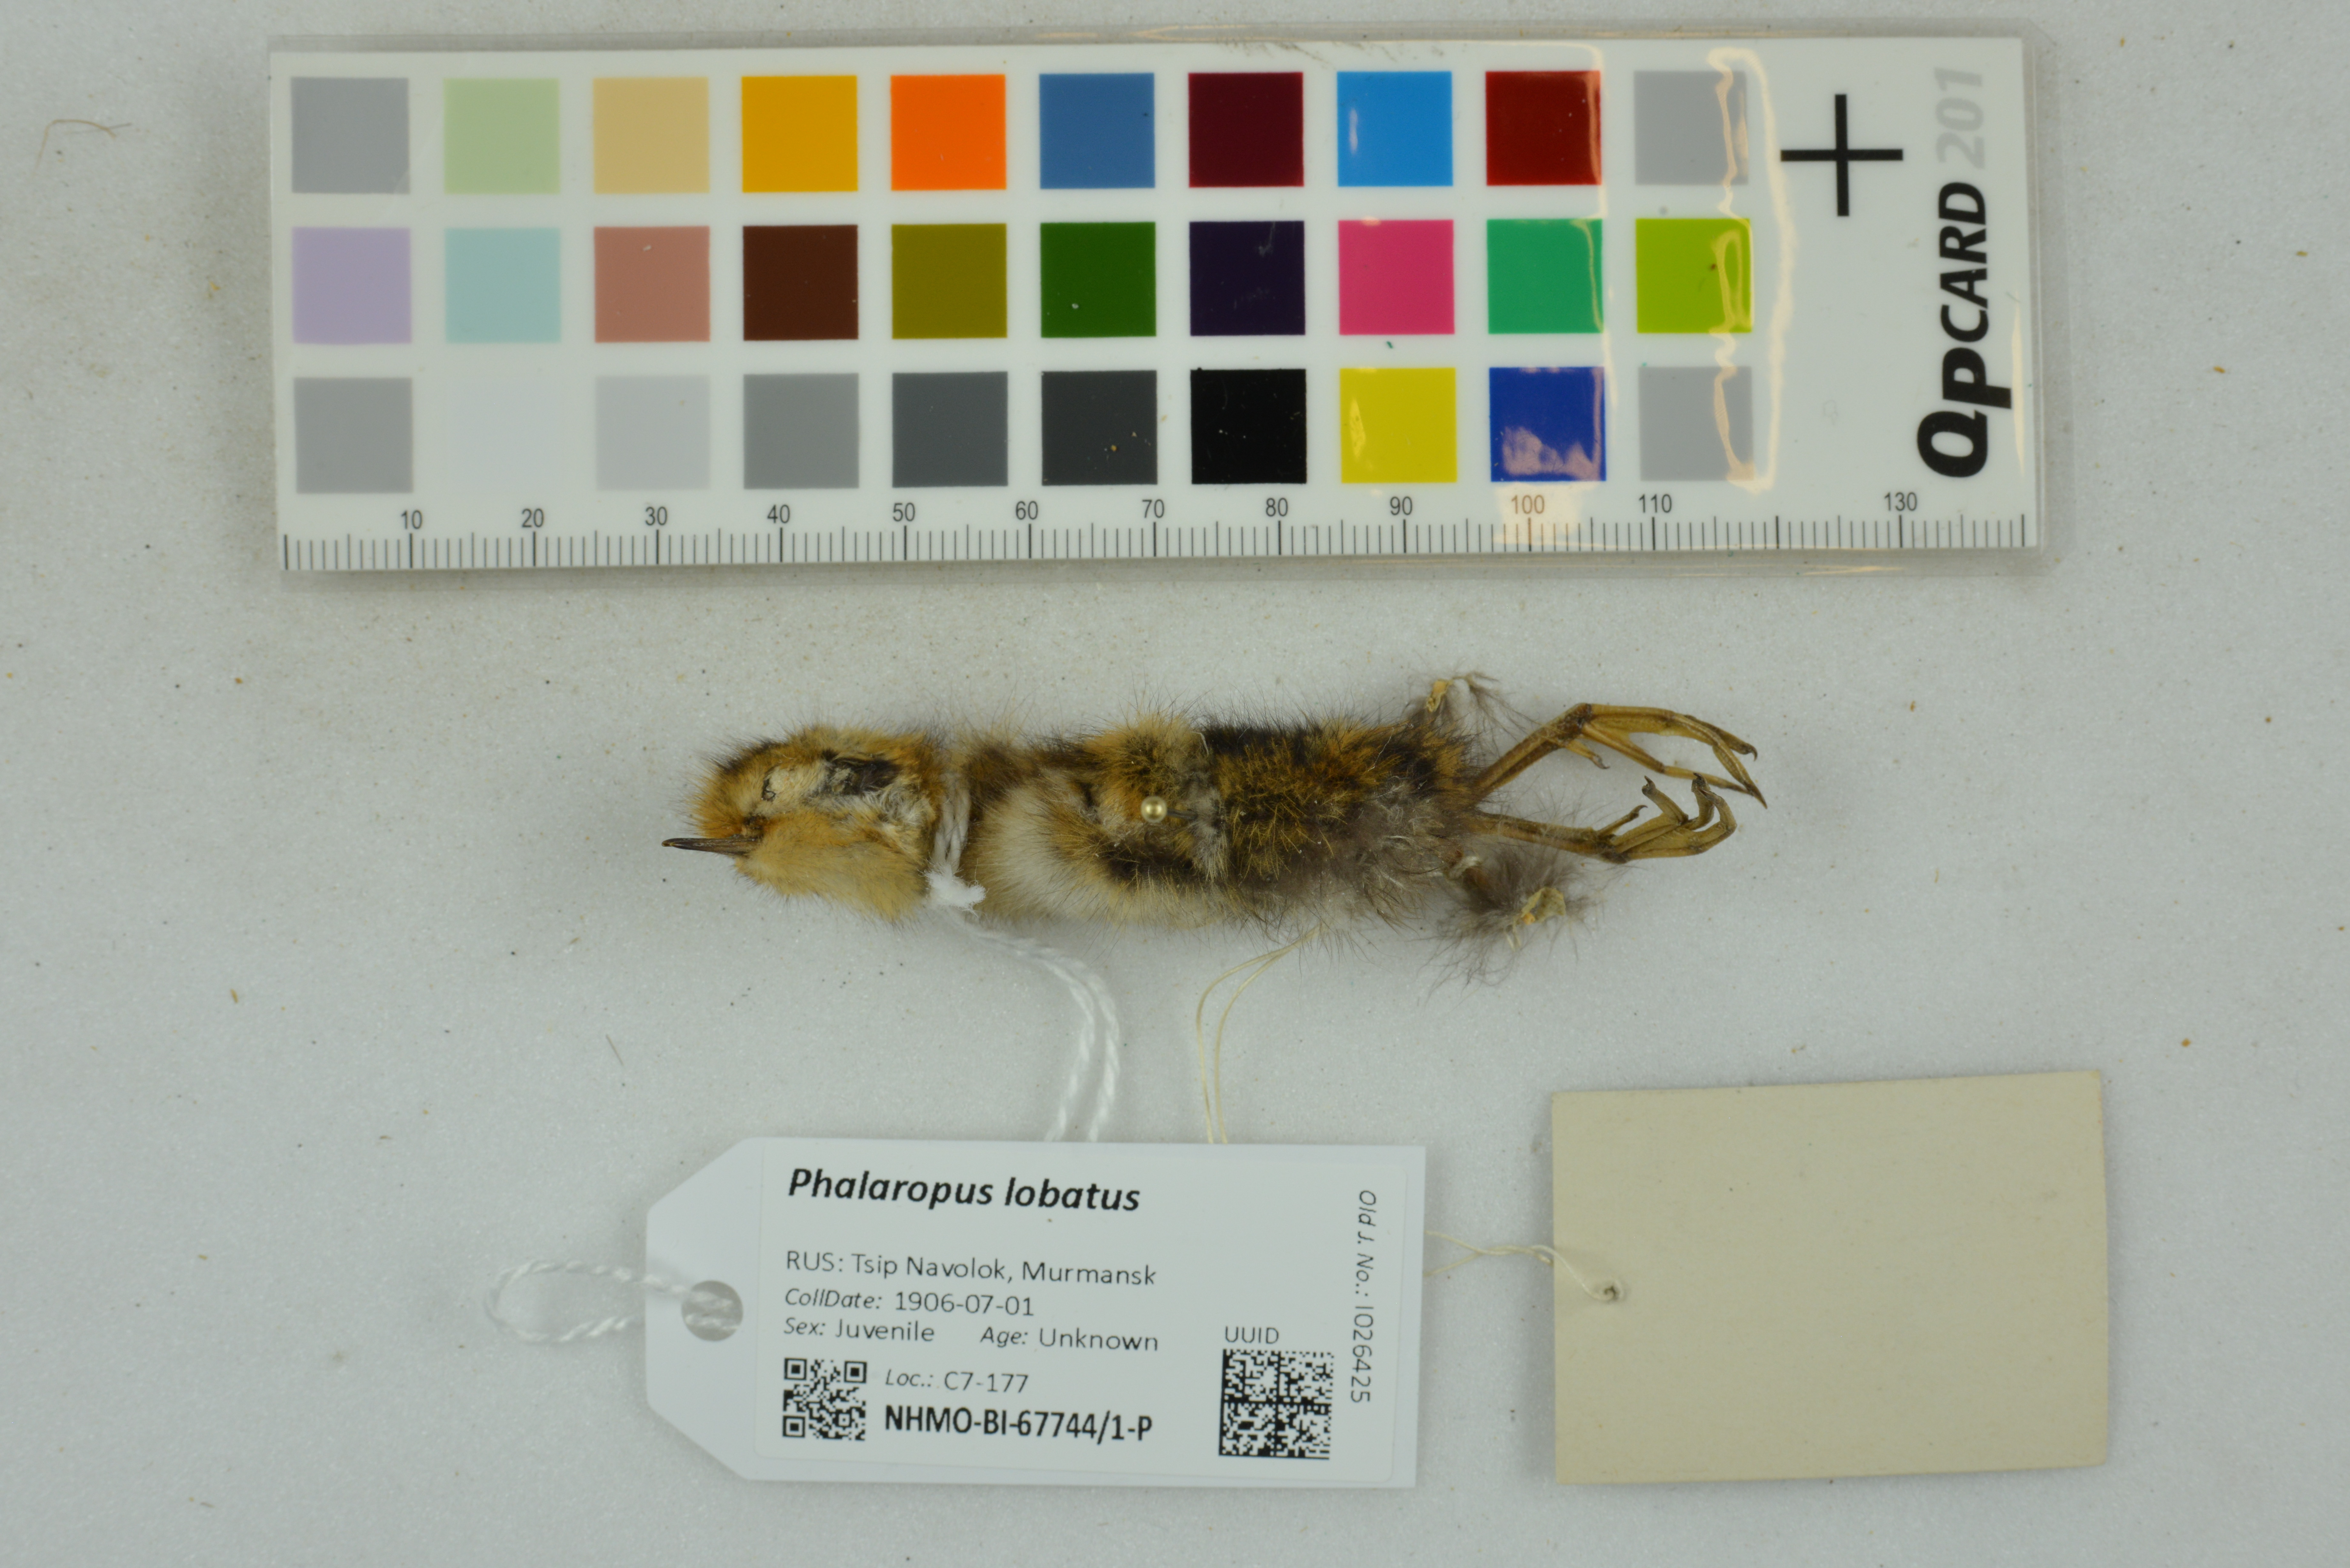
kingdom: Animalia
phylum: Chordata
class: Aves
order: Charadriiformes
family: Scolopacidae
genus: Phalaropus
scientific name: Phalaropus lobatus
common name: Red-necked phalarope
